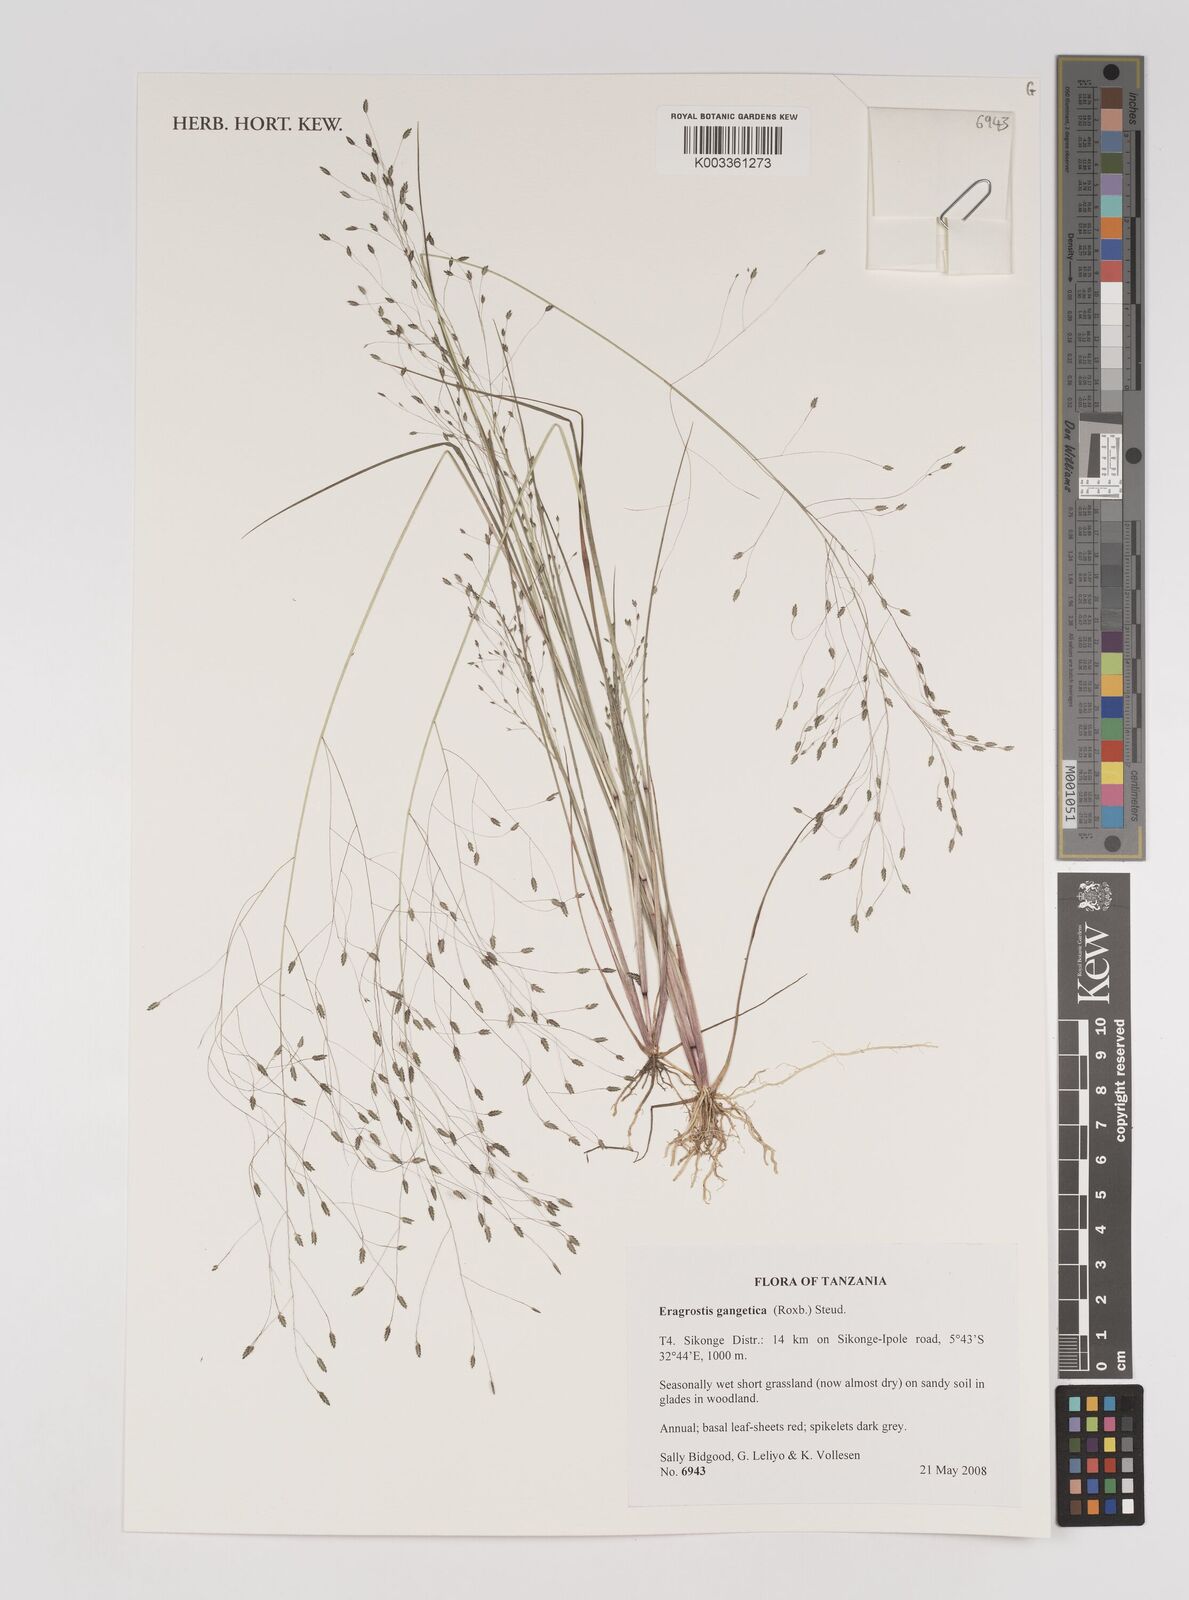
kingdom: Plantae
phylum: Tracheophyta
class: Liliopsida
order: Poales
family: Poaceae
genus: Eragrostis
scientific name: Eragrostis gangetica
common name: Slimflower lovegrass
